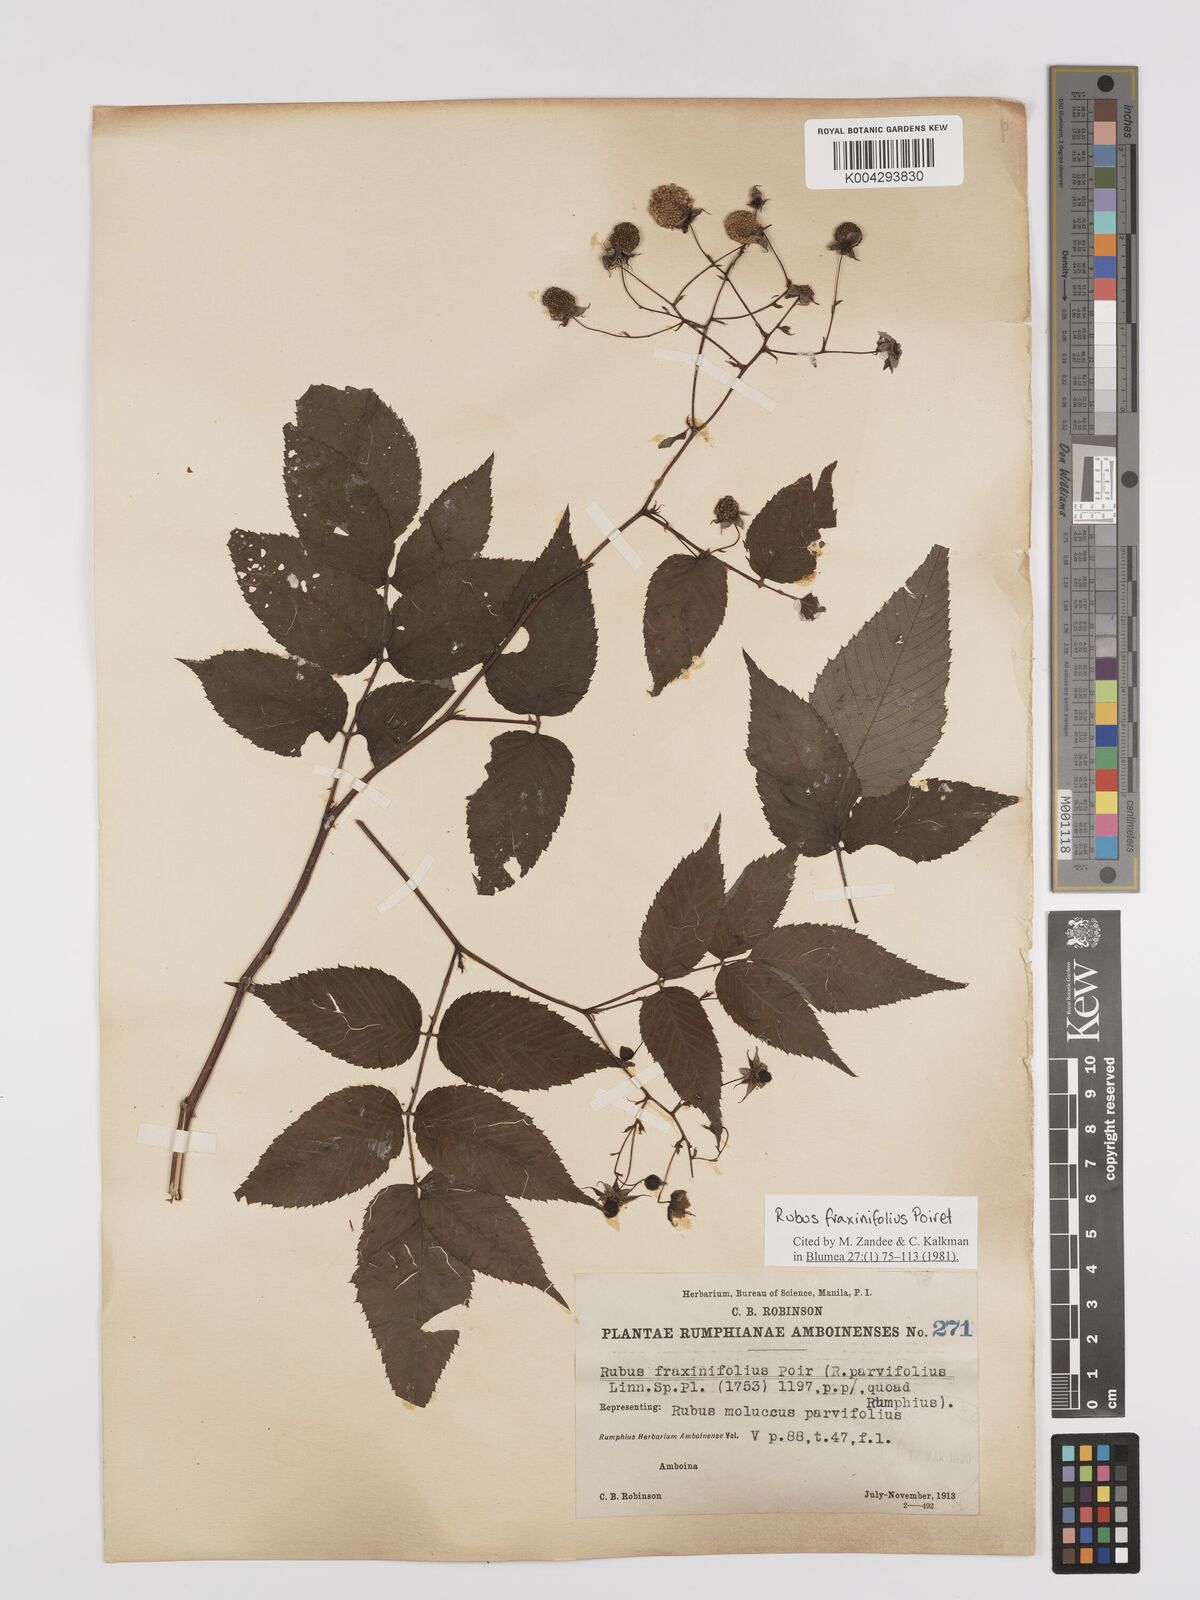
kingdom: Plantae
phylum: Tracheophyta
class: Magnoliopsida
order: Rosales
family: Rosaceae
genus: Rubus
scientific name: Rubus fraxinifolius
